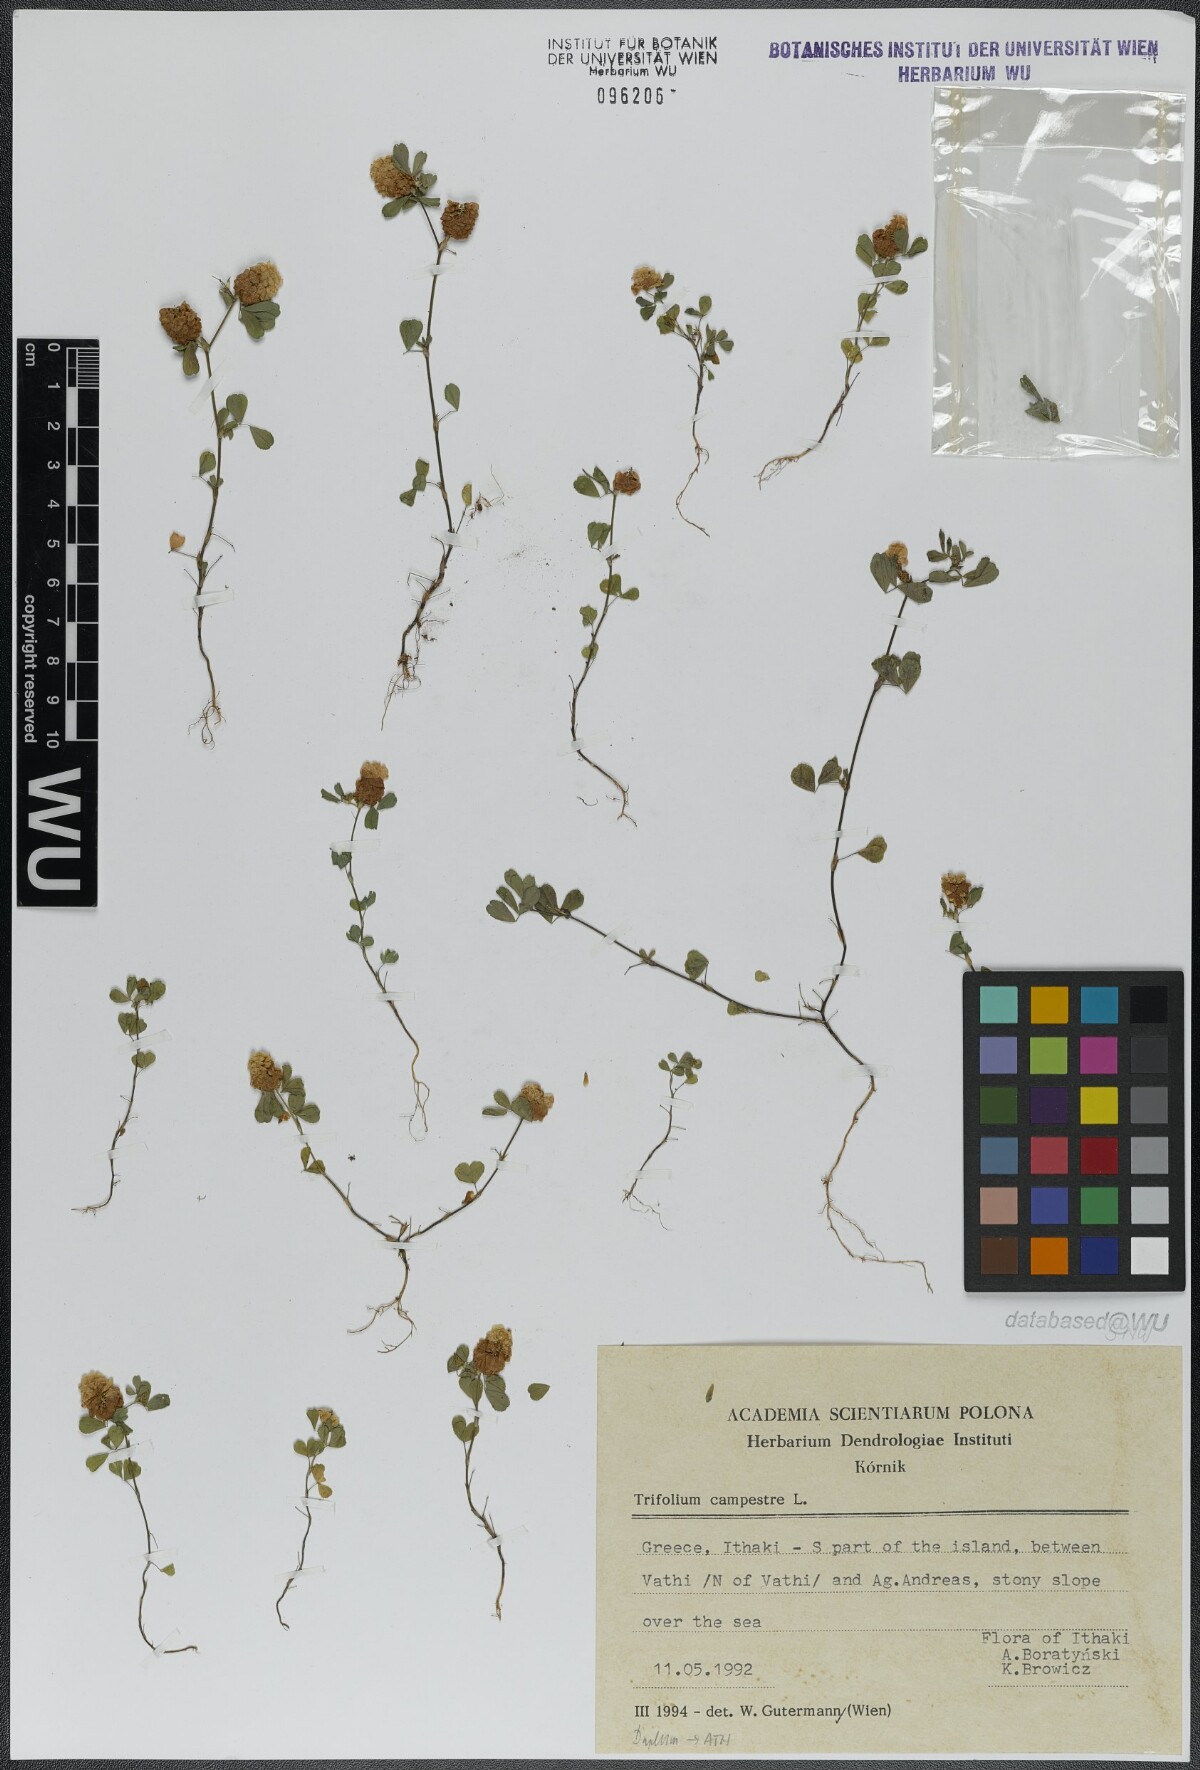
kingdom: Plantae
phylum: Tracheophyta
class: Magnoliopsida
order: Fabales
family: Fabaceae
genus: Trifolium
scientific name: Trifolium campestre
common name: Field clover
